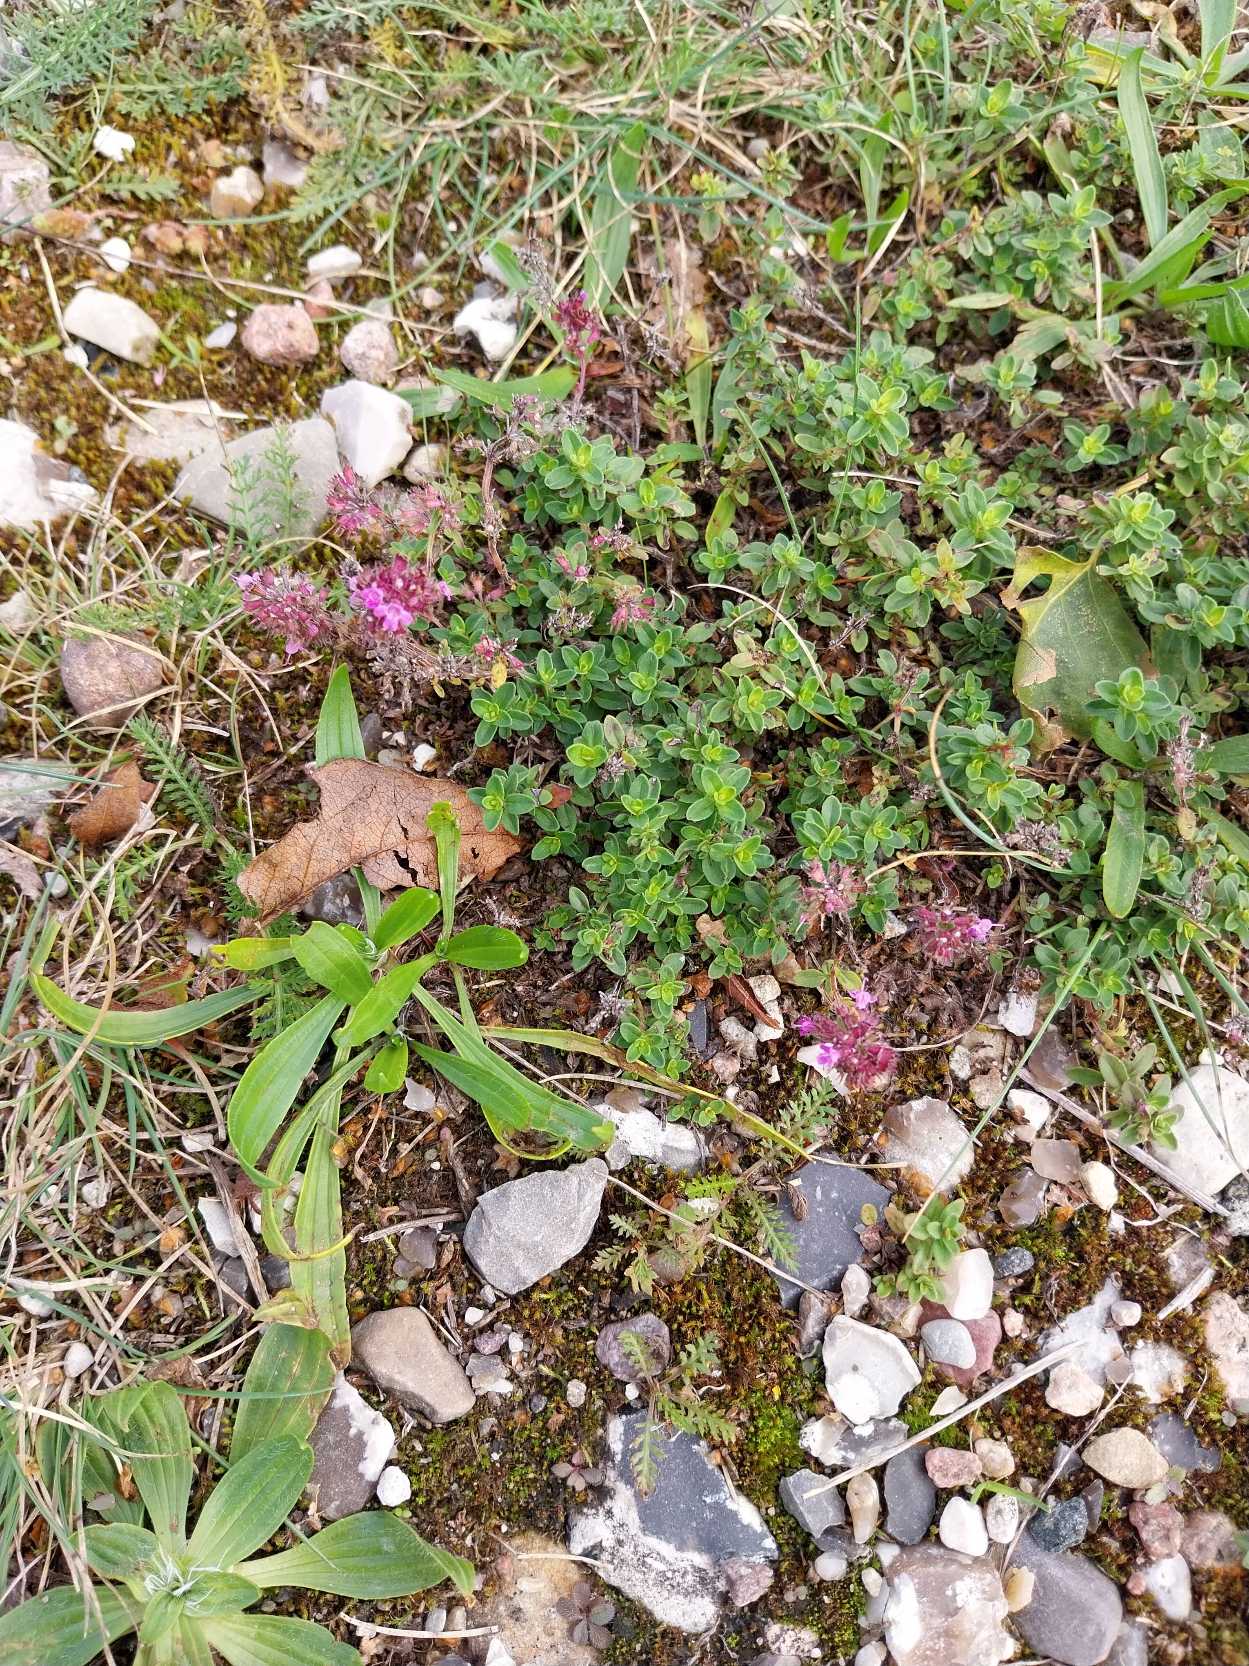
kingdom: Plantae
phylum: Tracheophyta
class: Magnoliopsida
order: Lamiales
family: Lamiaceae
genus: Thymus
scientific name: Thymus
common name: Timianslægten
